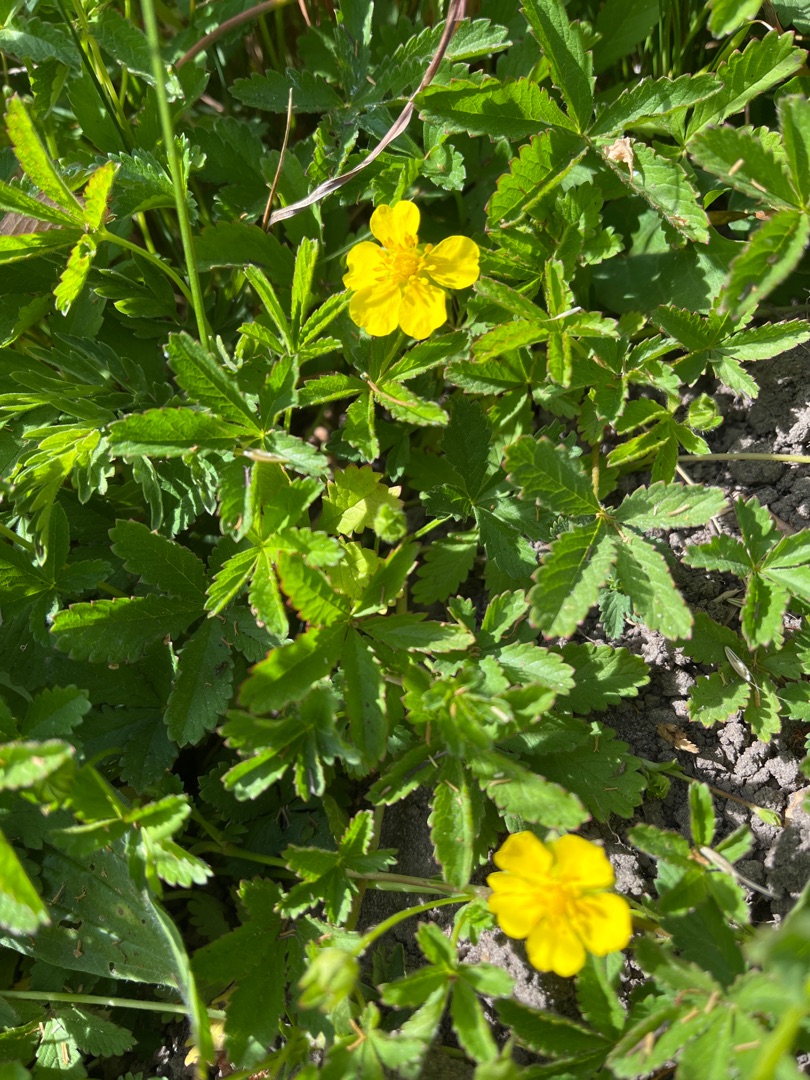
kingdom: Plantae
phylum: Tracheophyta
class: Magnoliopsida
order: Rosales
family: Rosaceae
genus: Potentilla
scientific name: Potentilla reptans
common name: Krybende potentil
